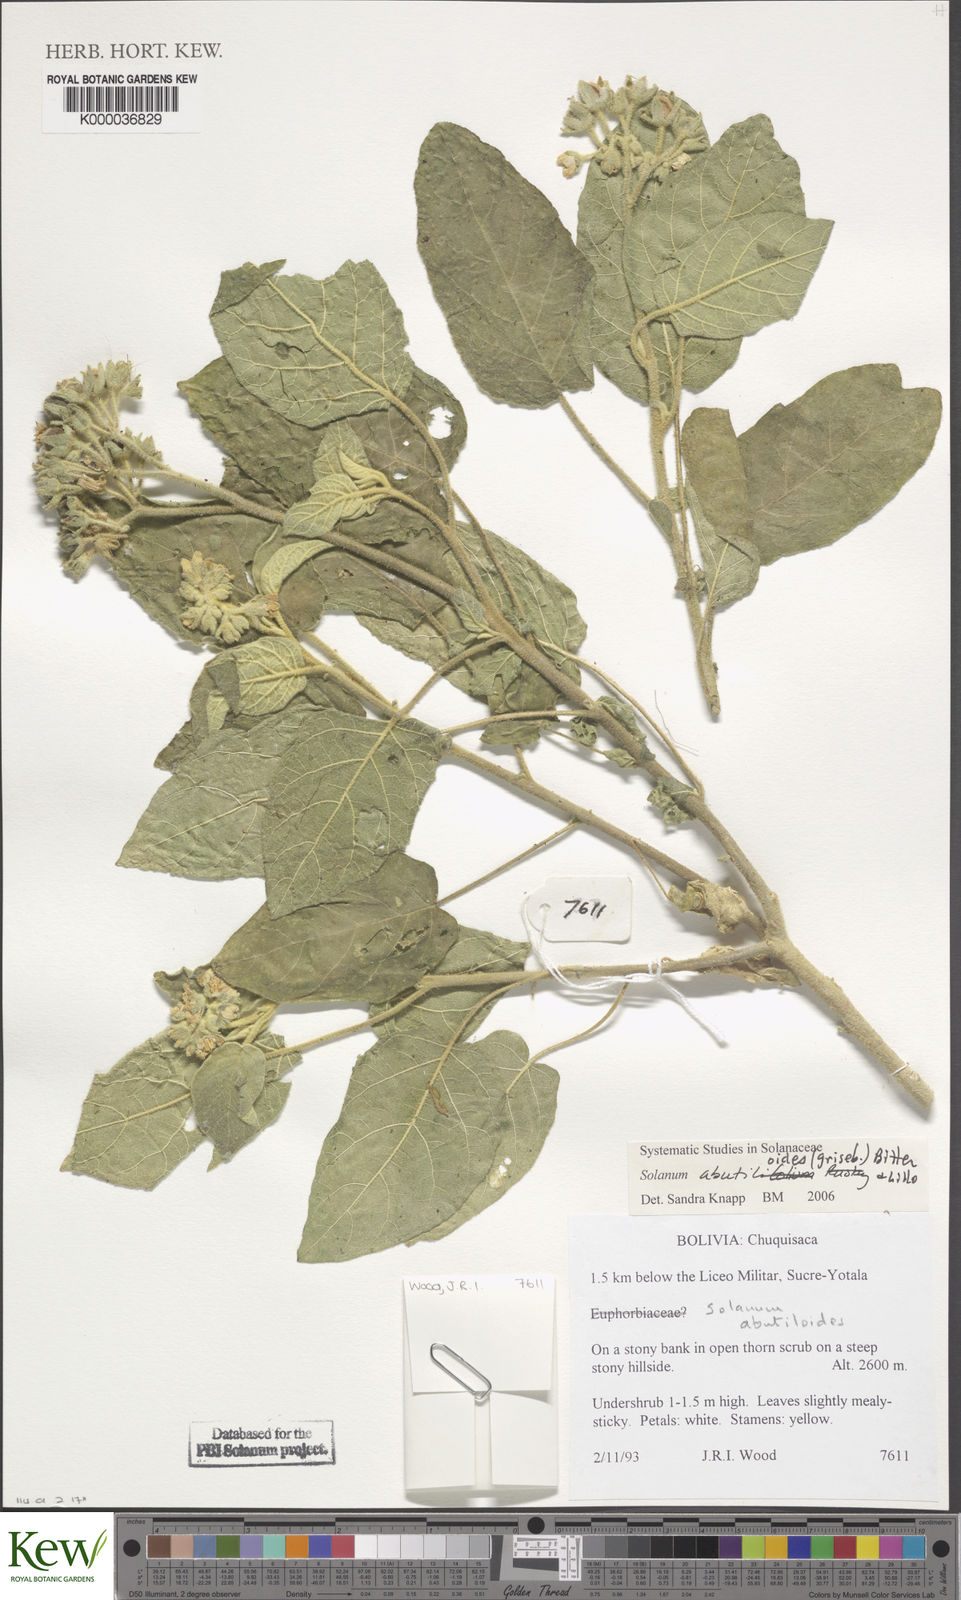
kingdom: Plantae
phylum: Tracheophyta
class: Magnoliopsida
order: Solanales
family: Solanaceae
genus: Solanum
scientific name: Solanum abutilifolium
